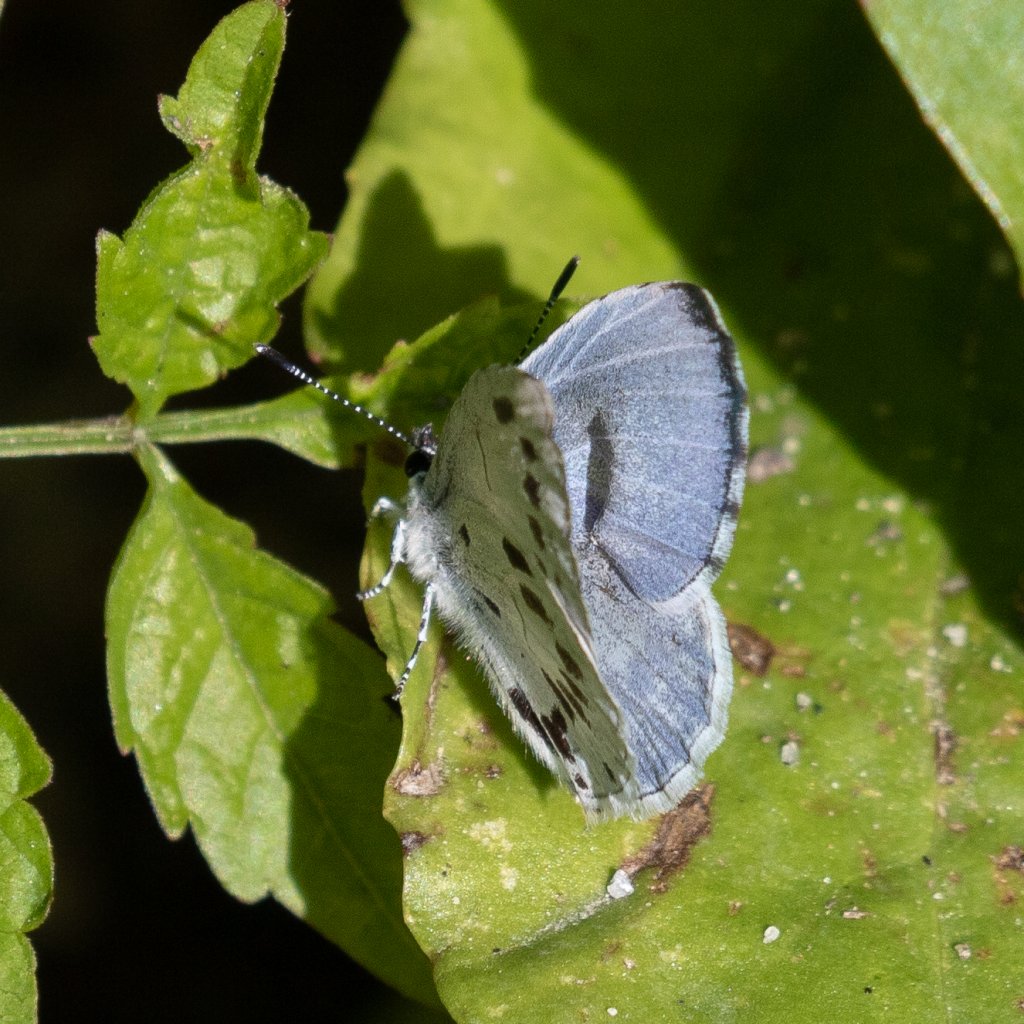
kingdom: Animalia
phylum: Arthropoda
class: Insecta
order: Lepidoptera
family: Lycaenidae
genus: Cyaniris
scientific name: Cyaniris neglecta
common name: Summer Azure
